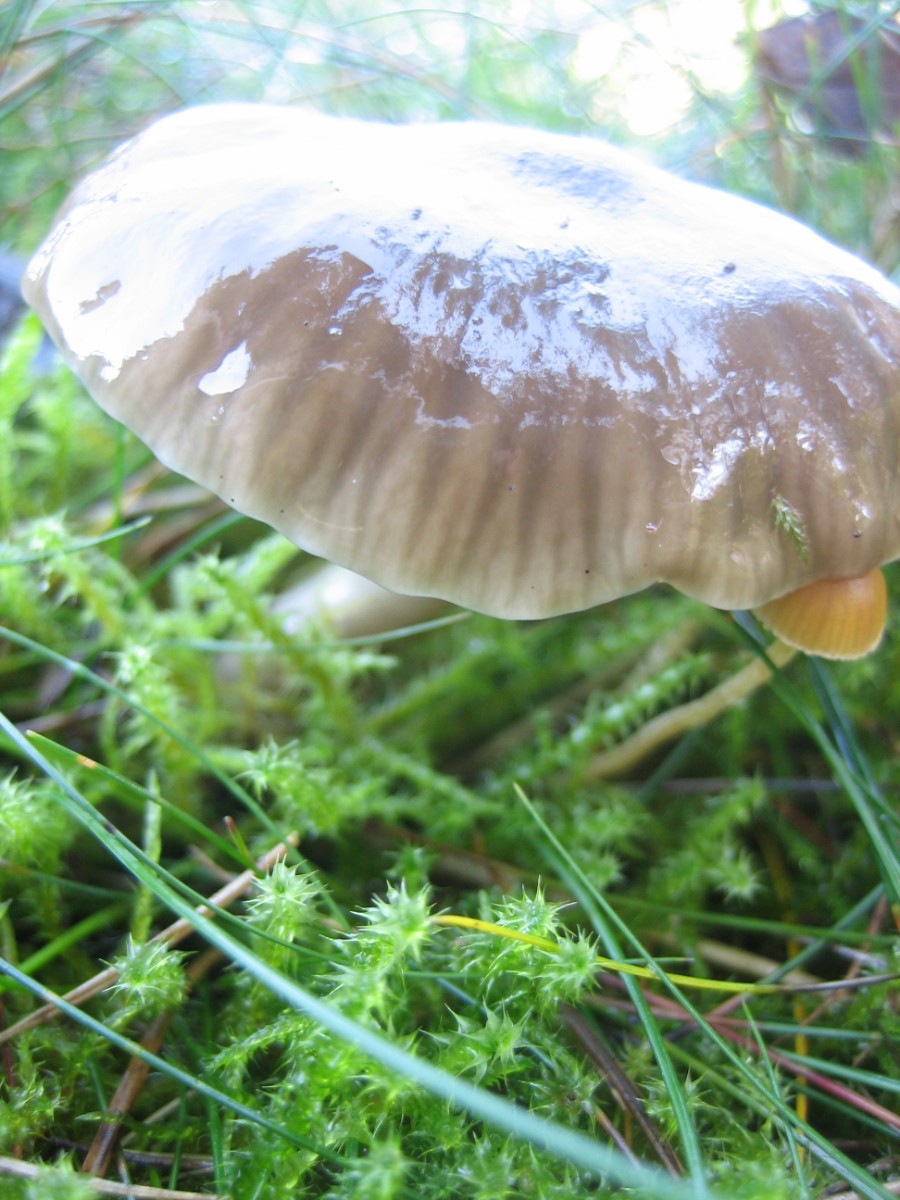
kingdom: Fungi
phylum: Basidiomycota
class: Agaricomycetes
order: Agaricales
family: Hygrophoraceae
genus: Gliophorus
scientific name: Gliophorus irrigatus
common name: slimet vokshat
